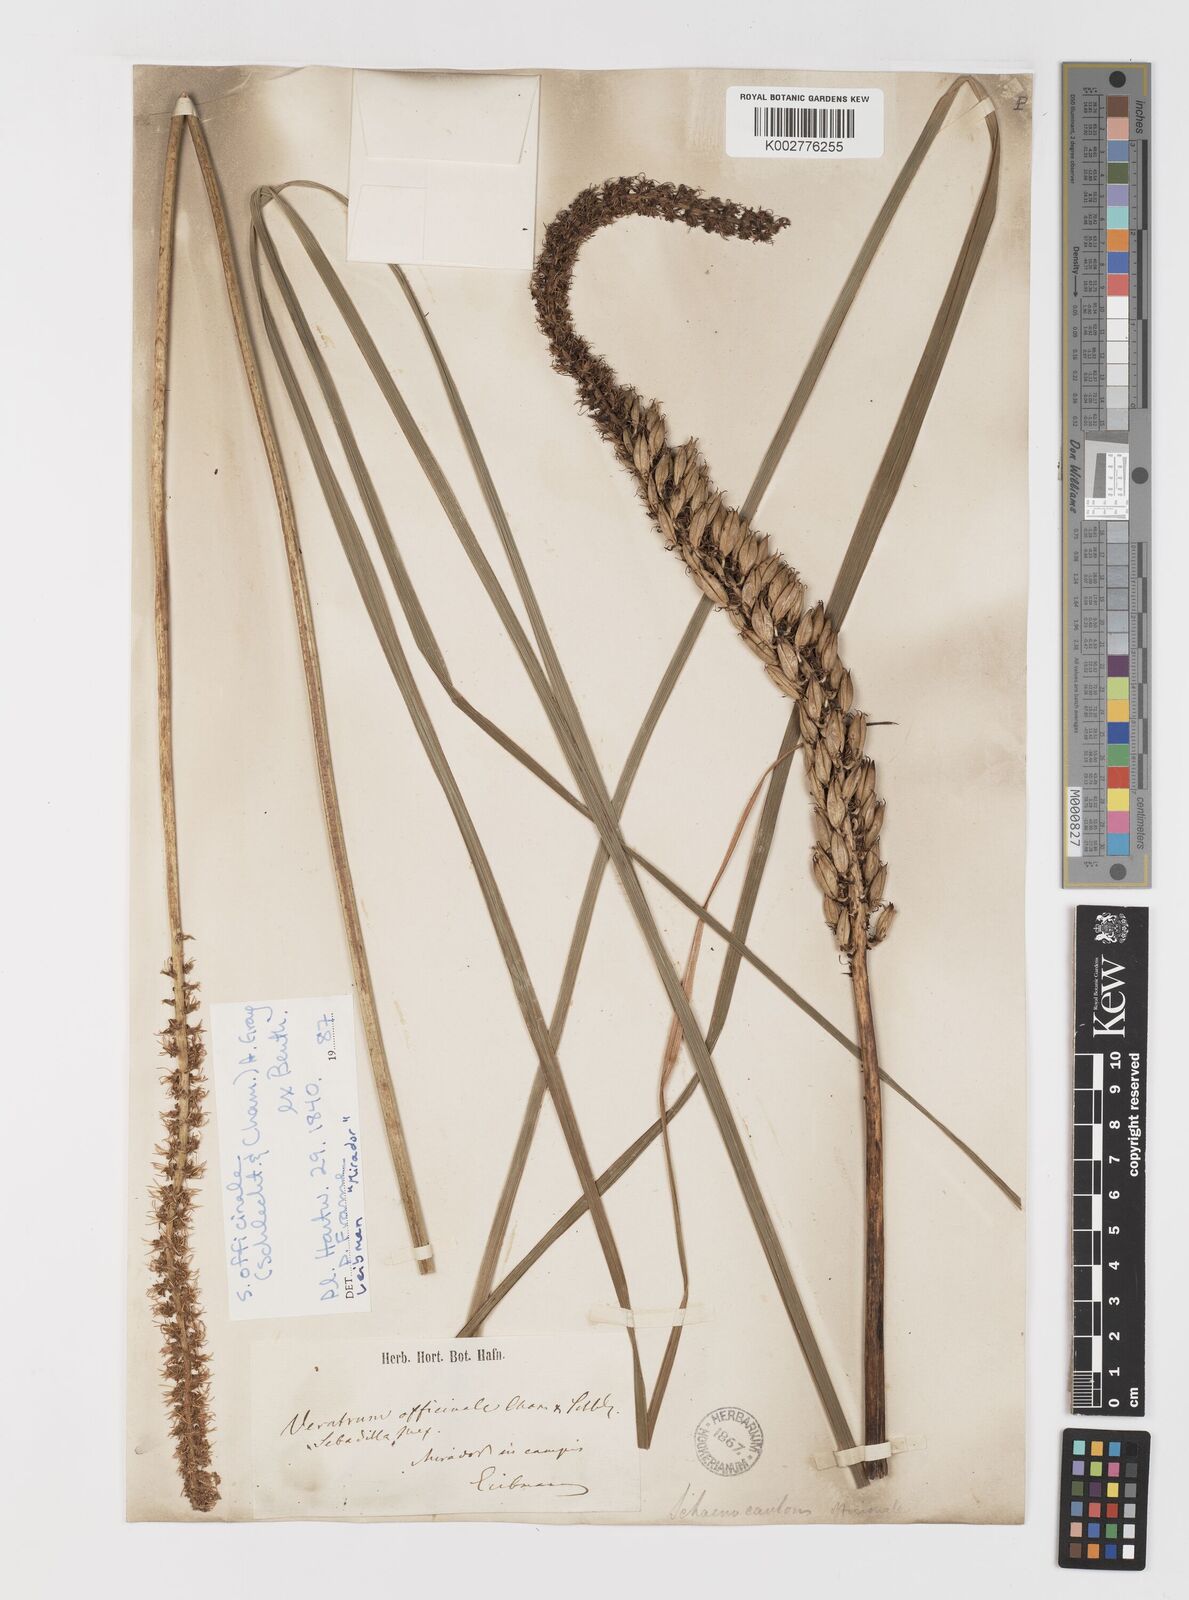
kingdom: Plantae
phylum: Tracheophyta
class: Liliopsida
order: Liliales
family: Melanthiaceae
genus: Schoenocaulon
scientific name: Schoenocaulon officinale
